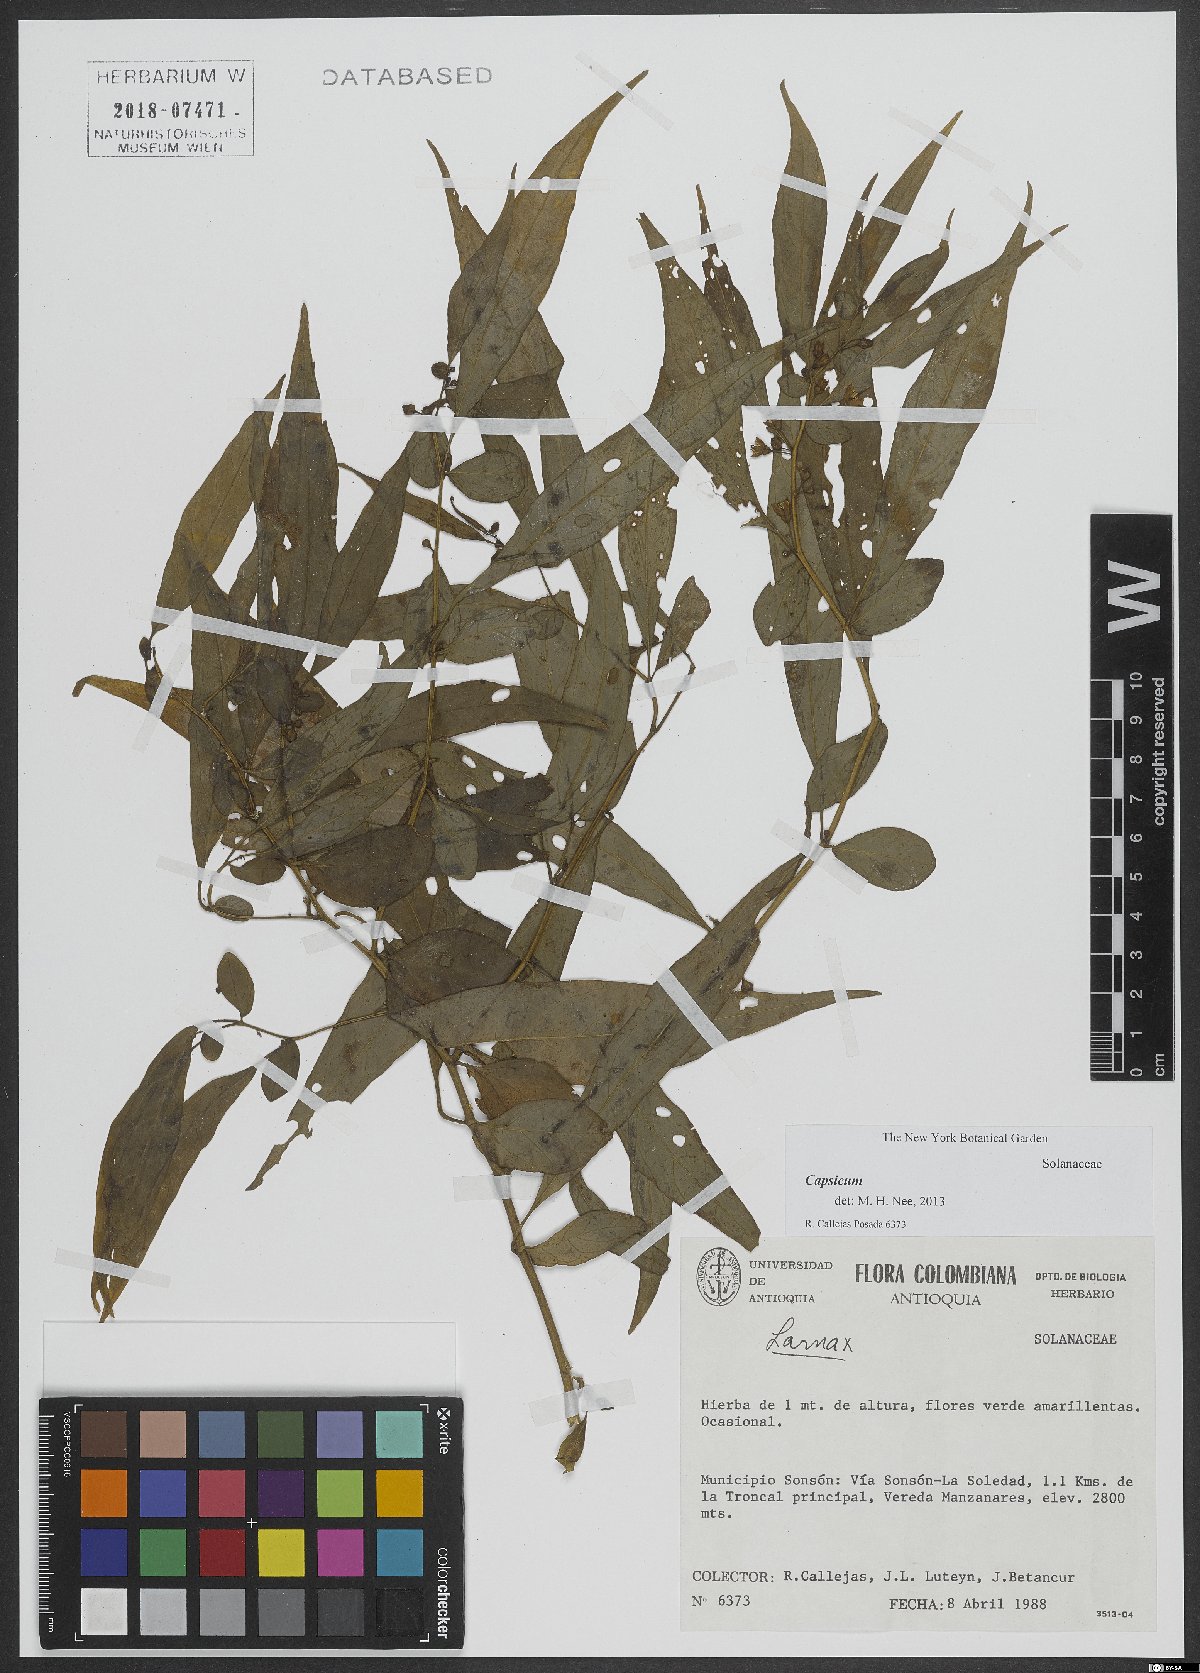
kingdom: Plantae
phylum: Tracheophyta
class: Magnoliopsida
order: Solanales
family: Solanaceae
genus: Capsicum
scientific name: Capsicum
